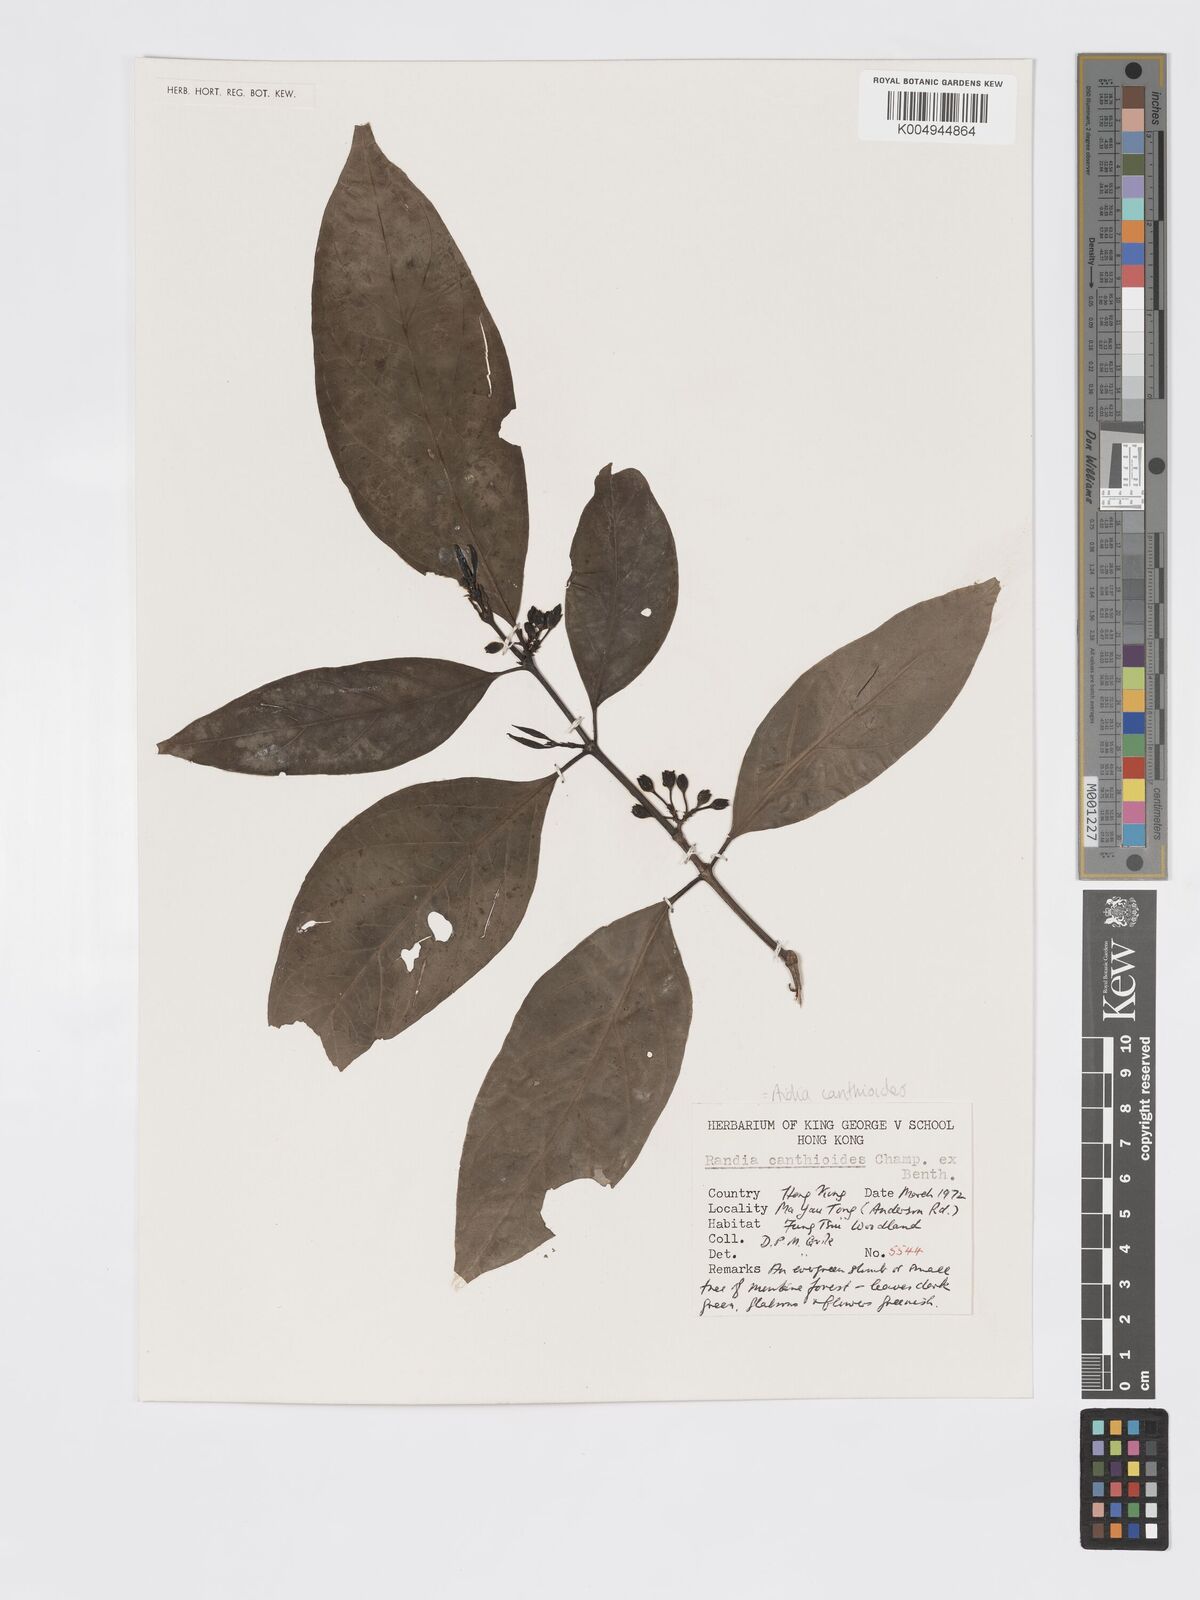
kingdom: Plantae
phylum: Tracheophyta
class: Magnoliopsida
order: Gentianales
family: Rubiaceae
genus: Aidia
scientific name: Aidia canthioides
